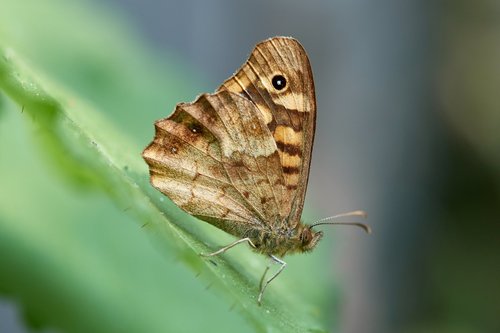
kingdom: Animalia
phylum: Arthropoda
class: Insecta
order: Lepidoptera
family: Nymphalidae
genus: Pararge
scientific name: Pararge aegeria
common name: Speckled wood
